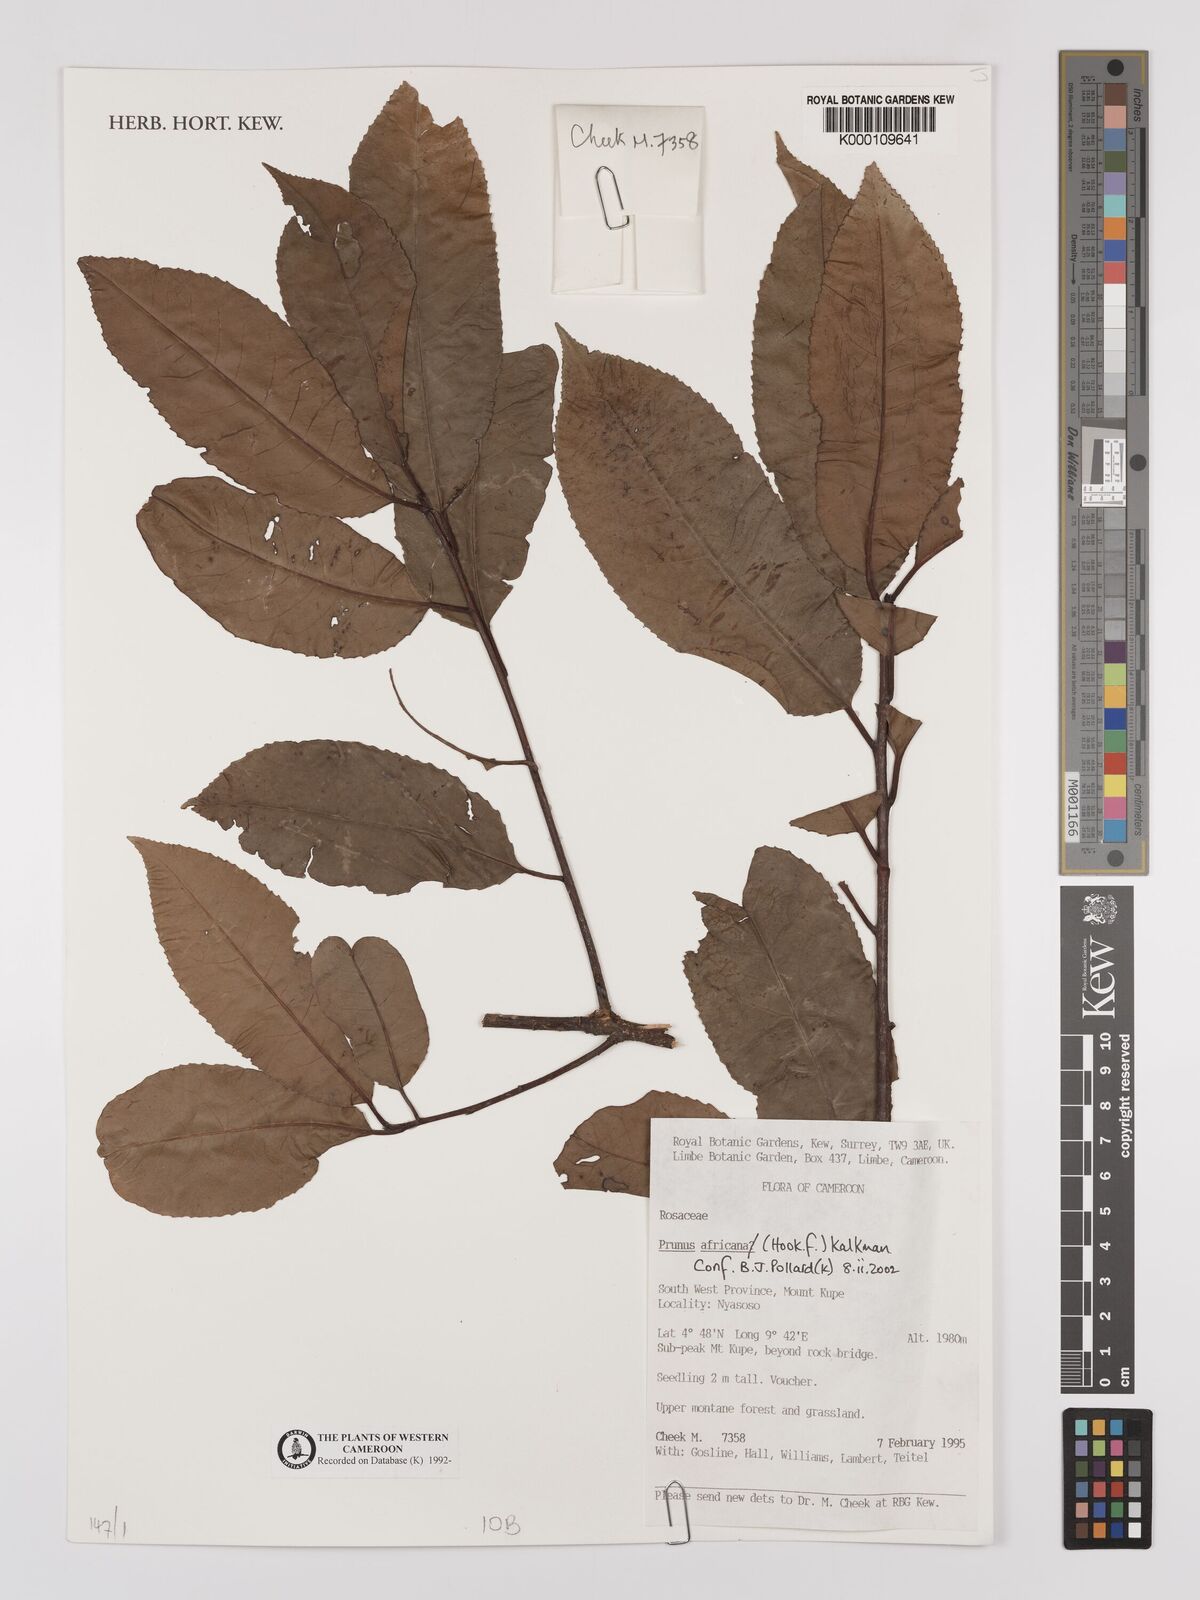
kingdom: Plantae
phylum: Tracheophyta
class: Magnoliopsida
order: Rosales
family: Rosaceae
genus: Prunus
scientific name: Prunus africana
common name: African cherry
